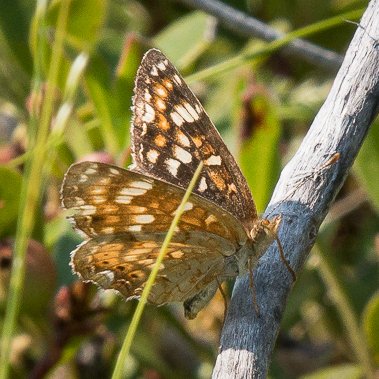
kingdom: Animalia
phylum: Arthropoda
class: Insecta
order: Lepidoptera
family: Nymphalidae
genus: Phyciodes
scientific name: Phyciodes tharos
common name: Field Crescent
